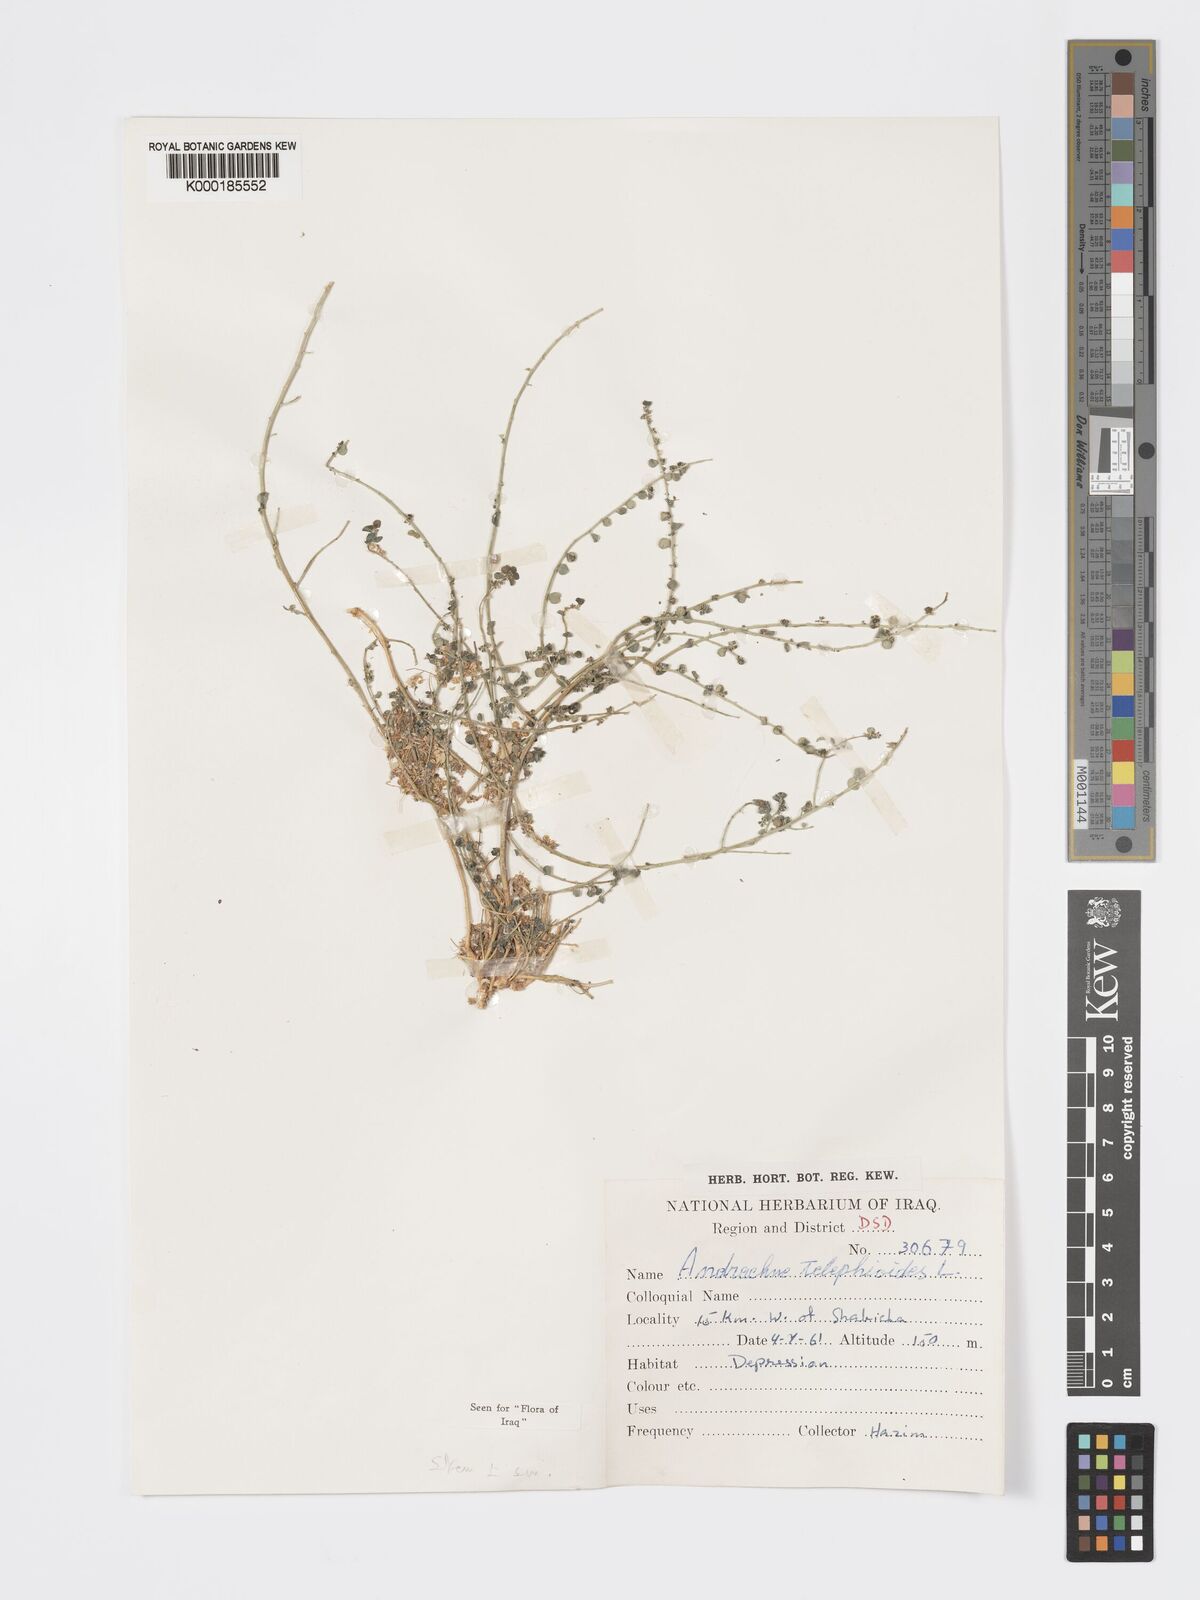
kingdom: Plantae
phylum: Tracheophyta
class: Magnoliopsida
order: Malpighiales
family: Phyllanthaceae
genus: Andrachne
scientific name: Andrachne telephioides
